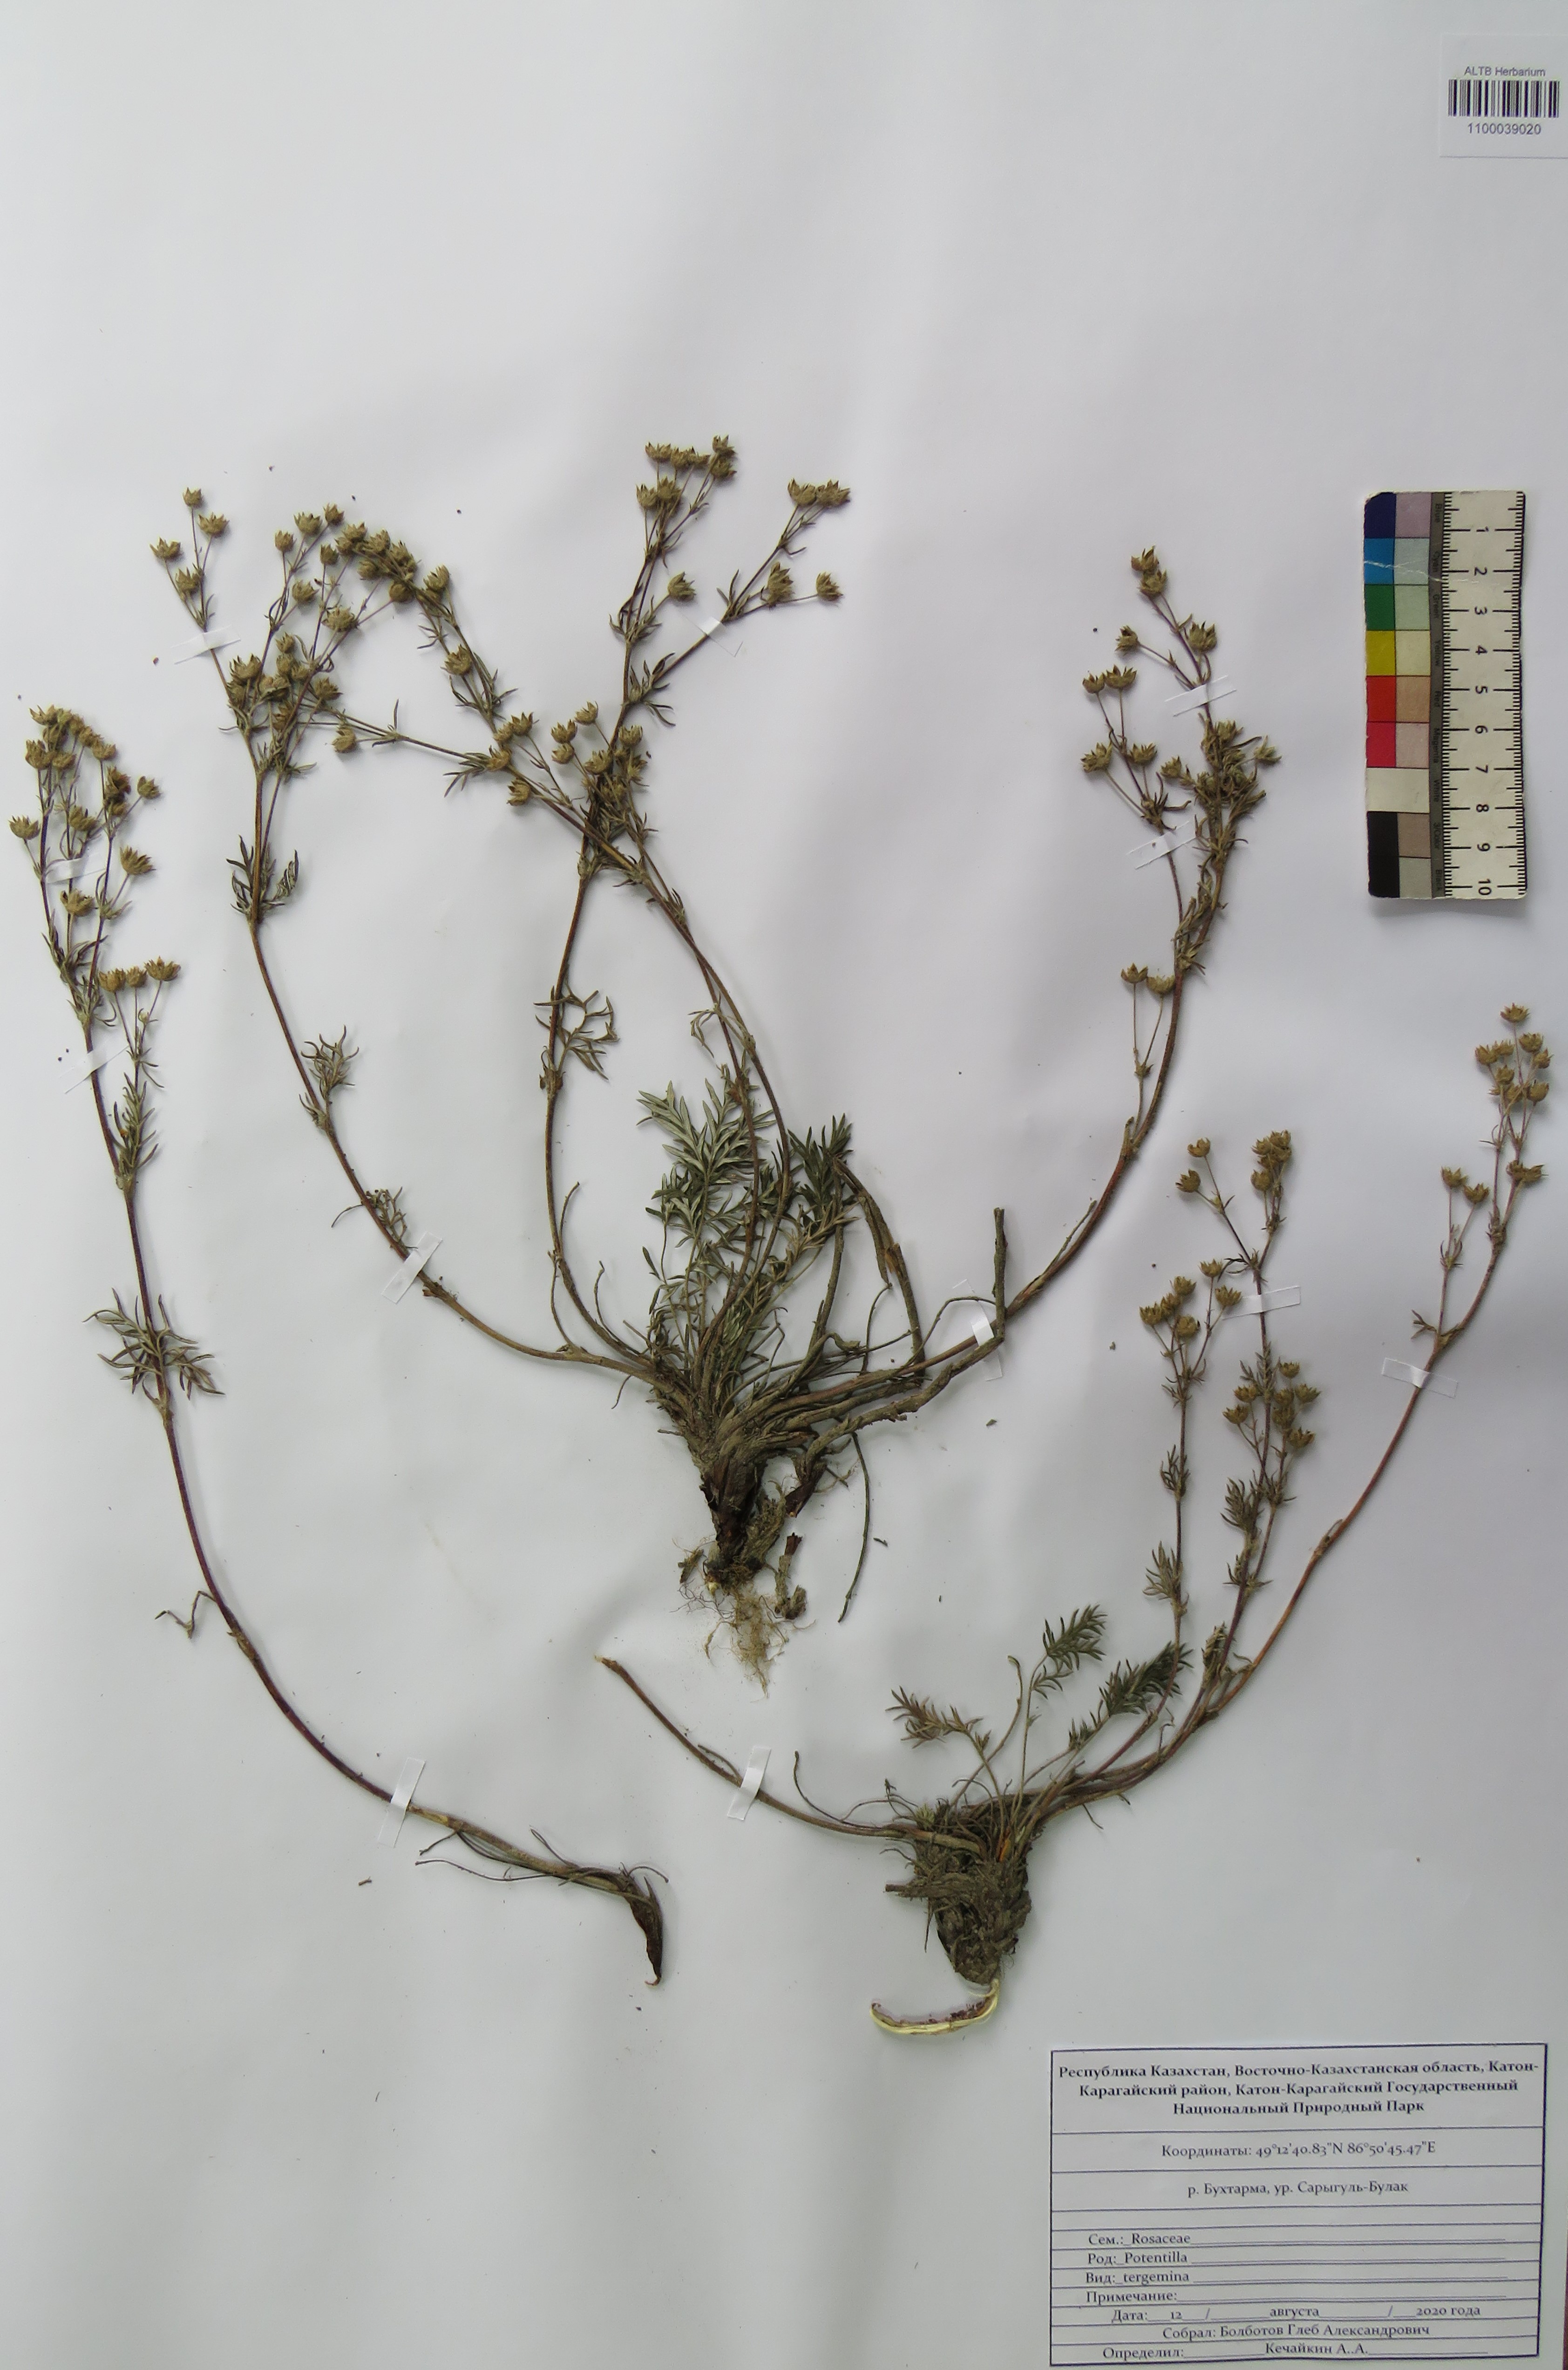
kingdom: Plantae
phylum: Tracheophyta
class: Magnoliopsida
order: Rosales
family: Rosaceae
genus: Potentilla
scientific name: Potentilla tergemina
